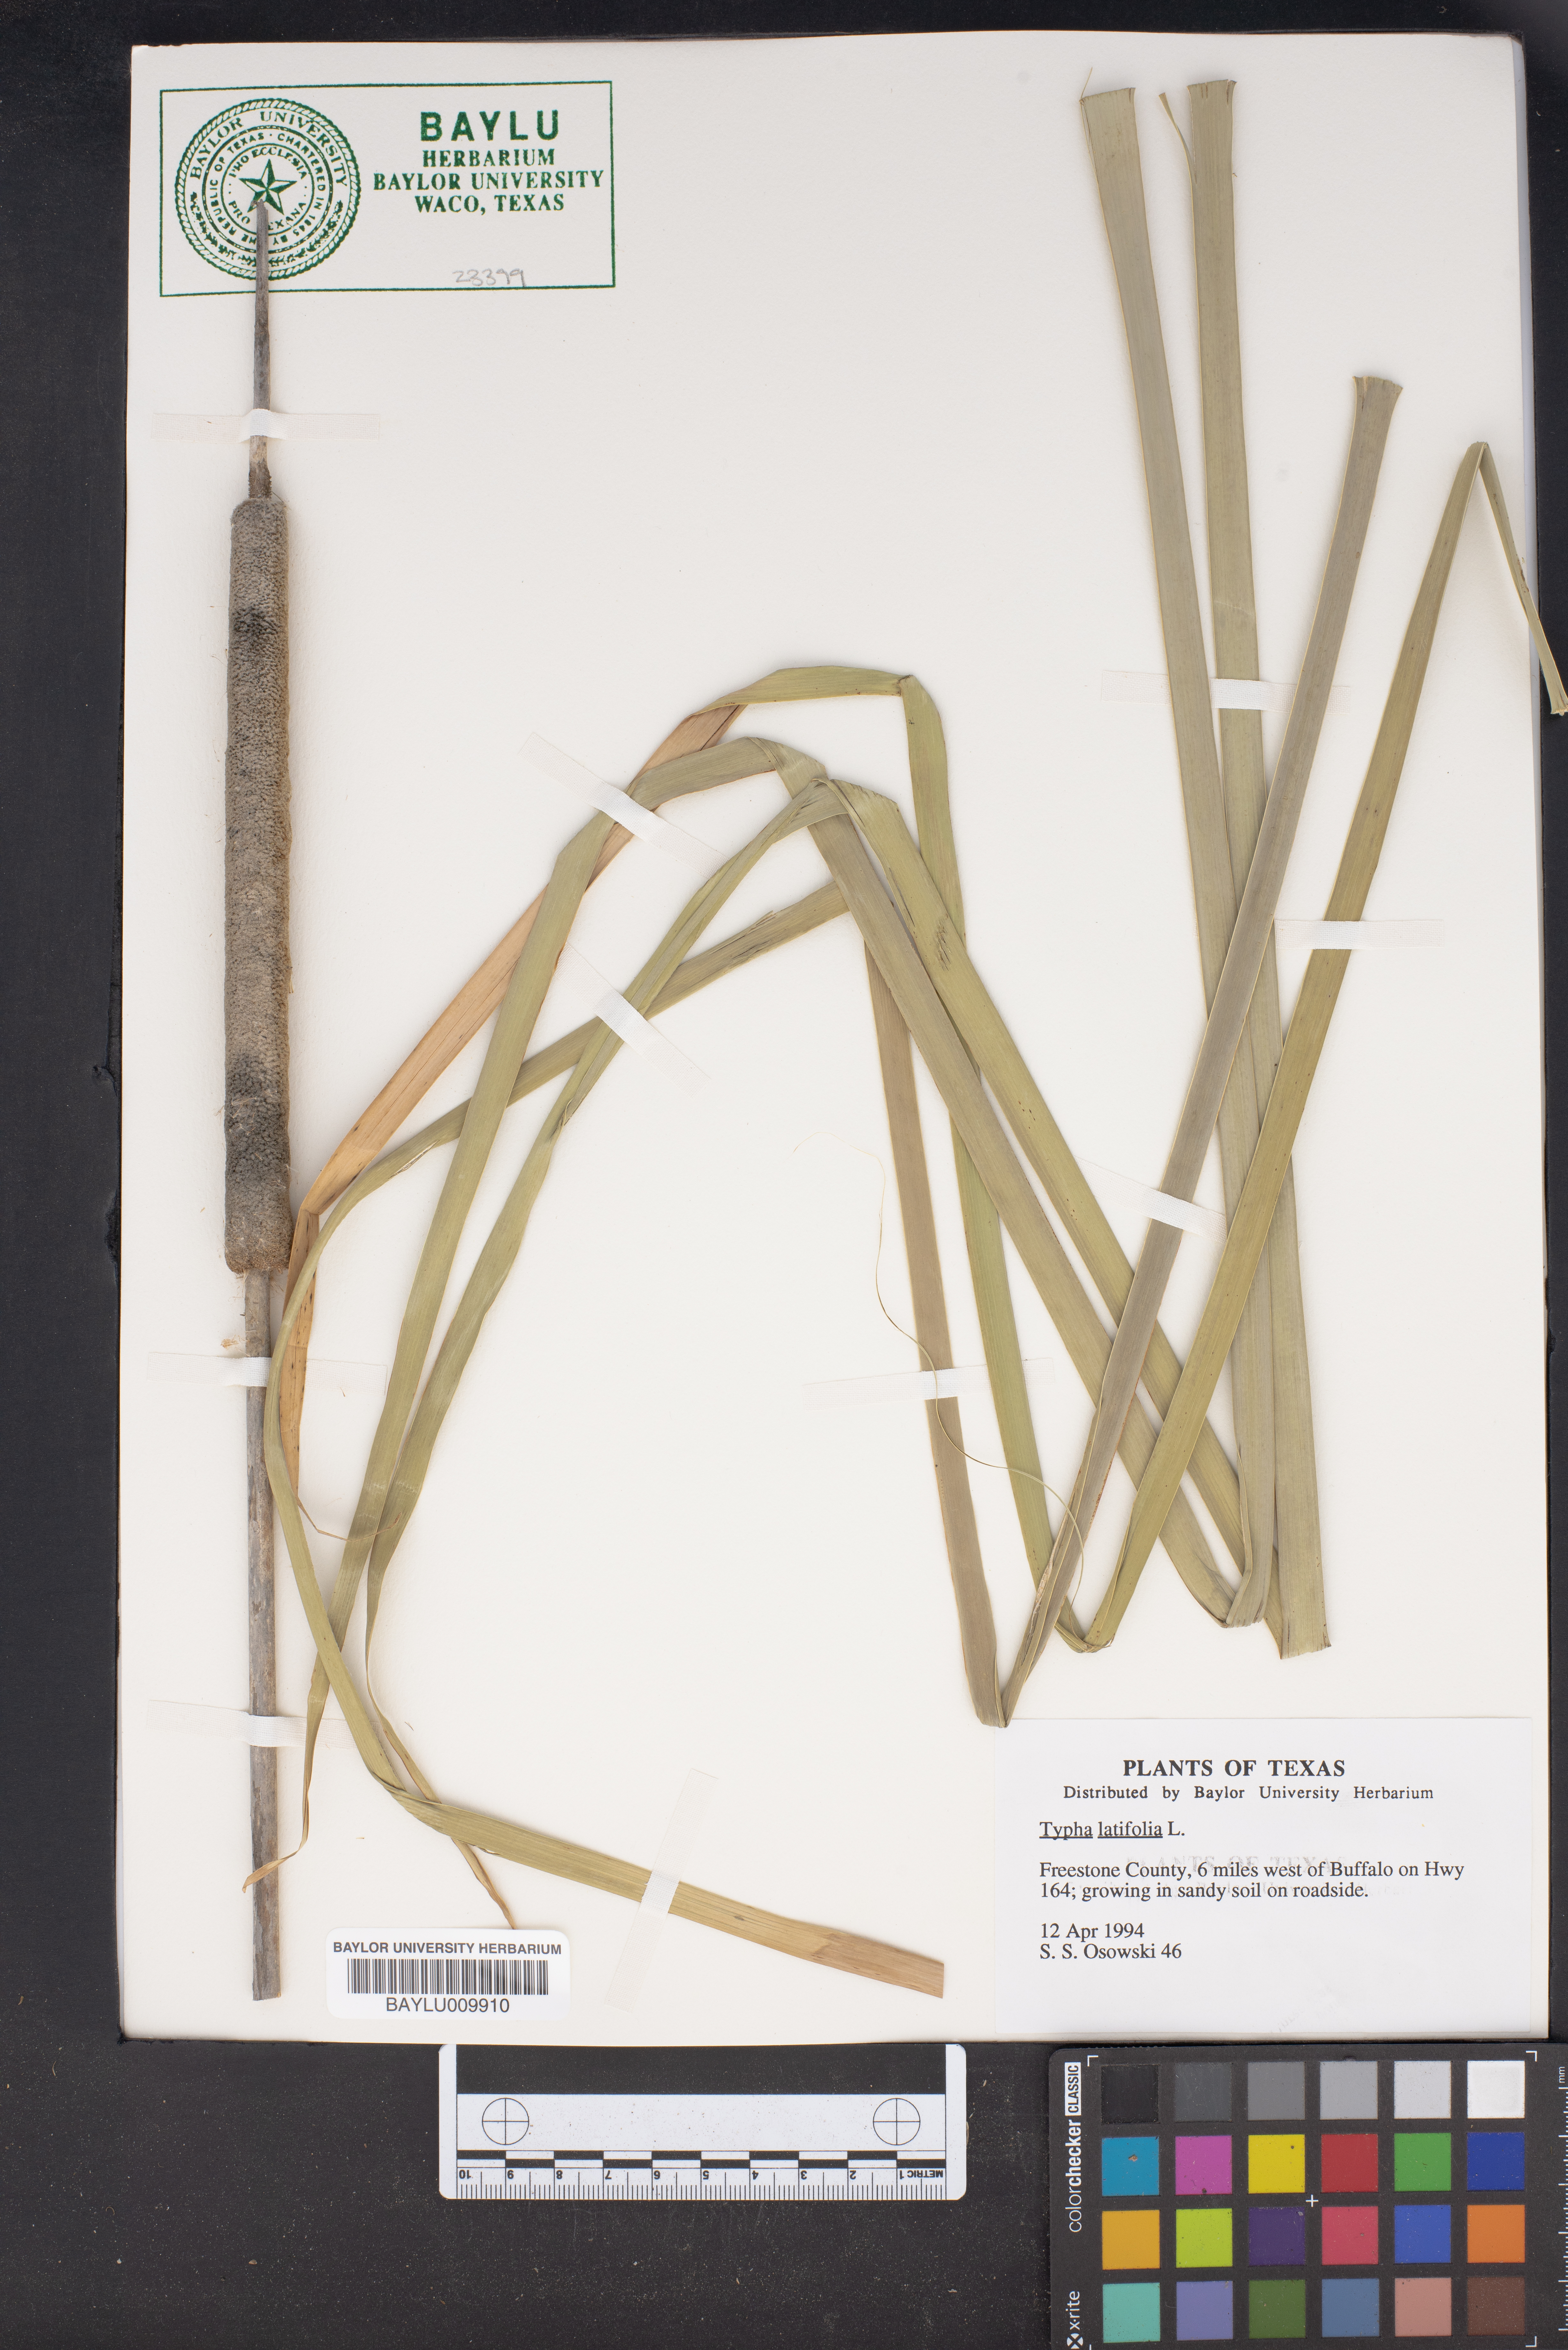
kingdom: Plantae
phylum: Tracheophyta
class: Liliopsida
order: Poales
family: Typhaceae
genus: Typha
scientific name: Typha latifolia
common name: Broadleaf cattail
